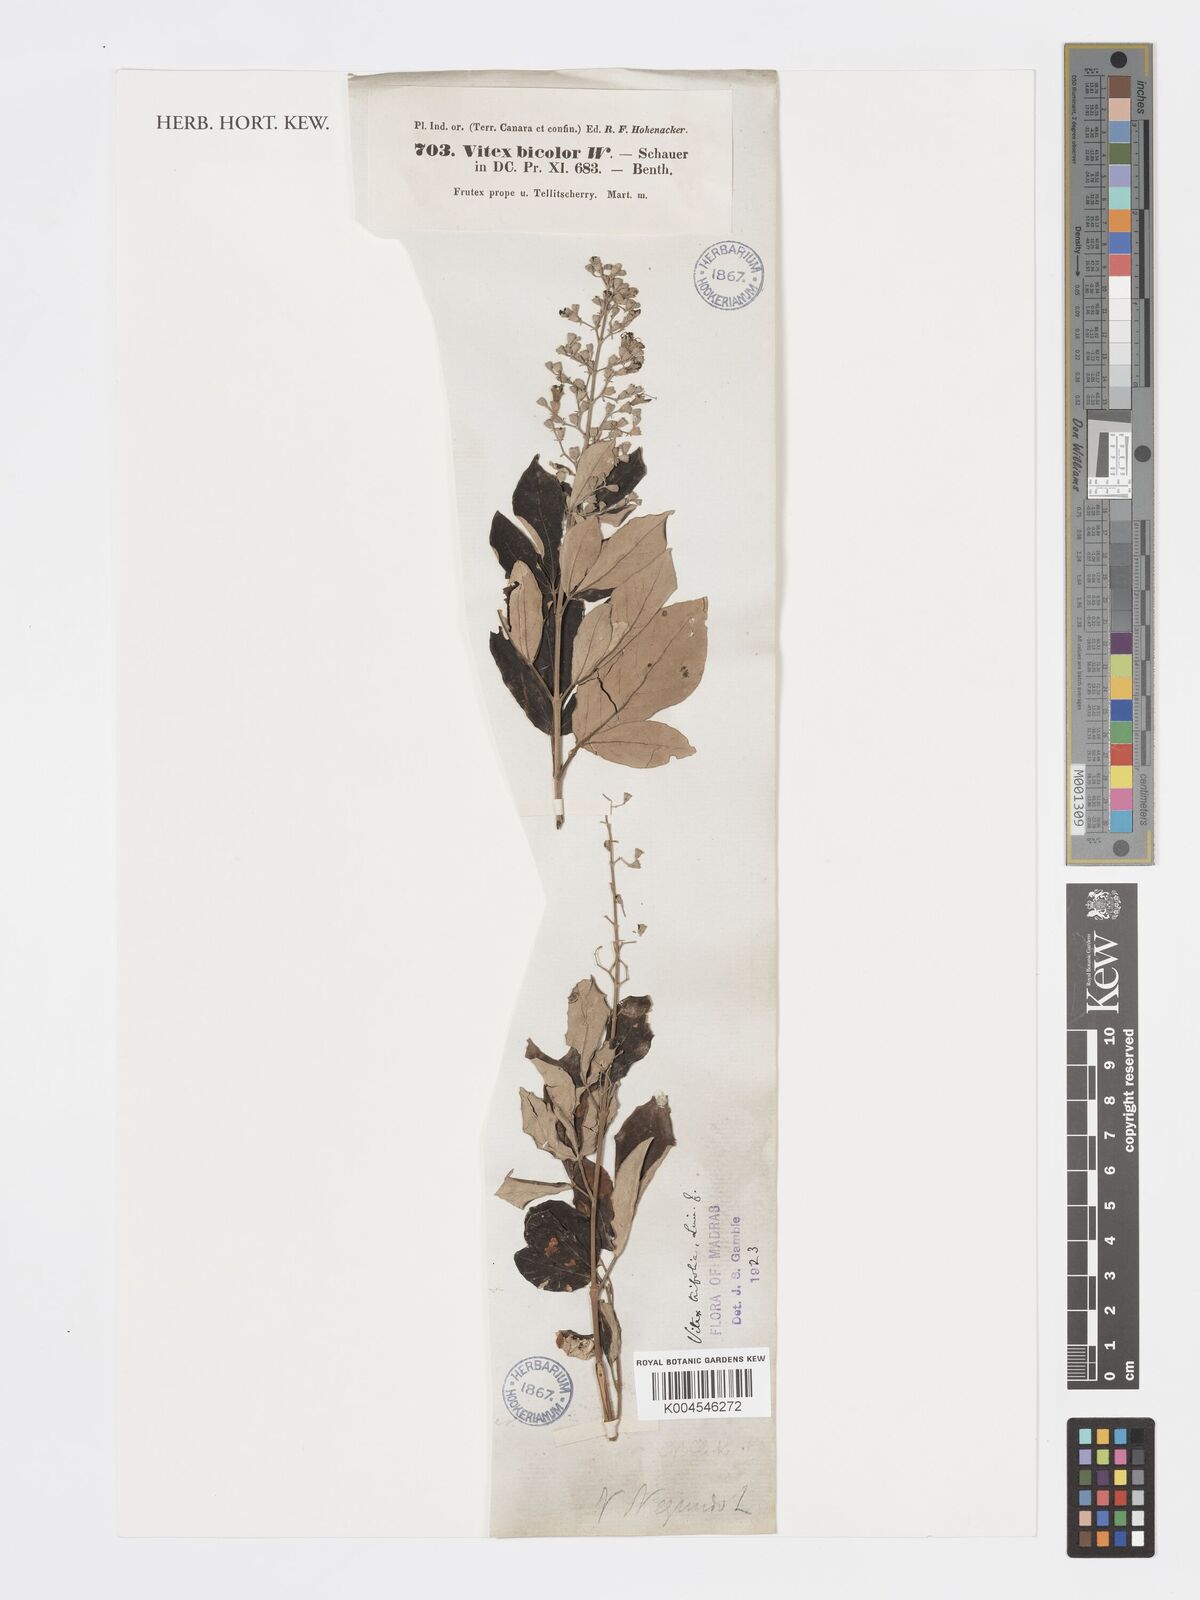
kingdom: Plantae
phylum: Tracheophyta
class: Magnoliopsida
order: Lamiales
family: Lamiaceae
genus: Vitex
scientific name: Vitex bicolor
